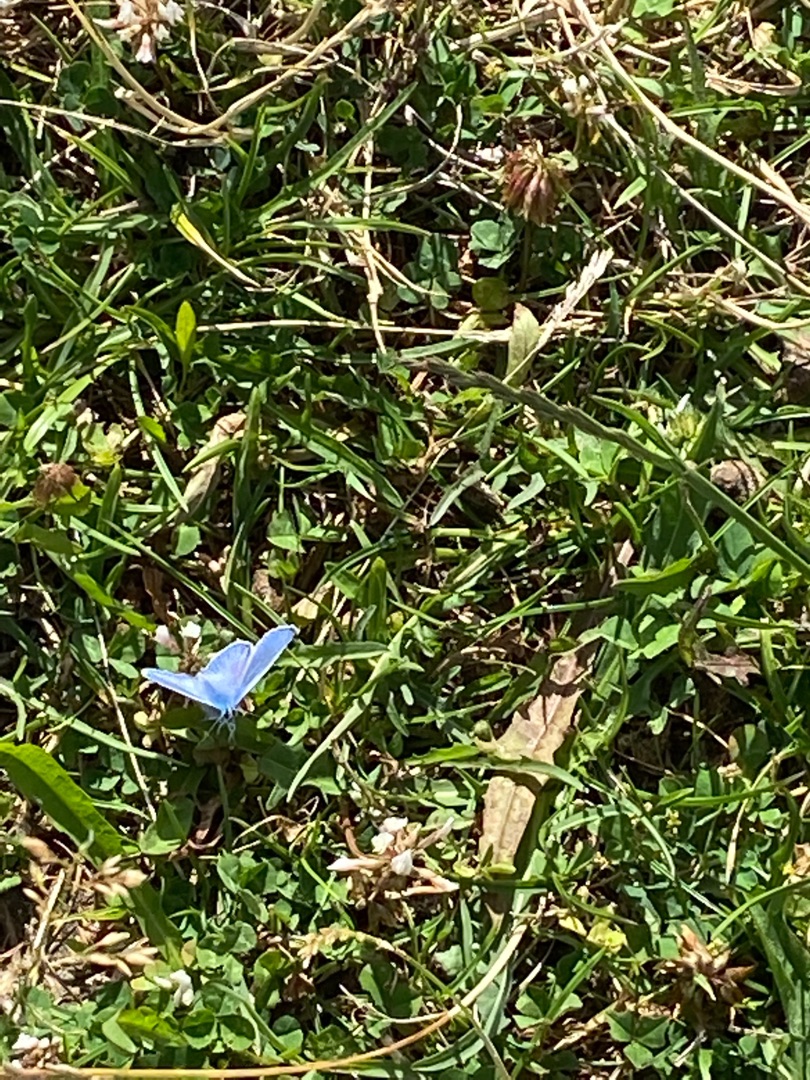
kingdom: Animalia
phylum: Arthropoda
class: Insecta
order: Lepidoptera
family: Lycaenidae
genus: Polyommatus
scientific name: Polyommatus icarus
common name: Almindelig blåfugl
